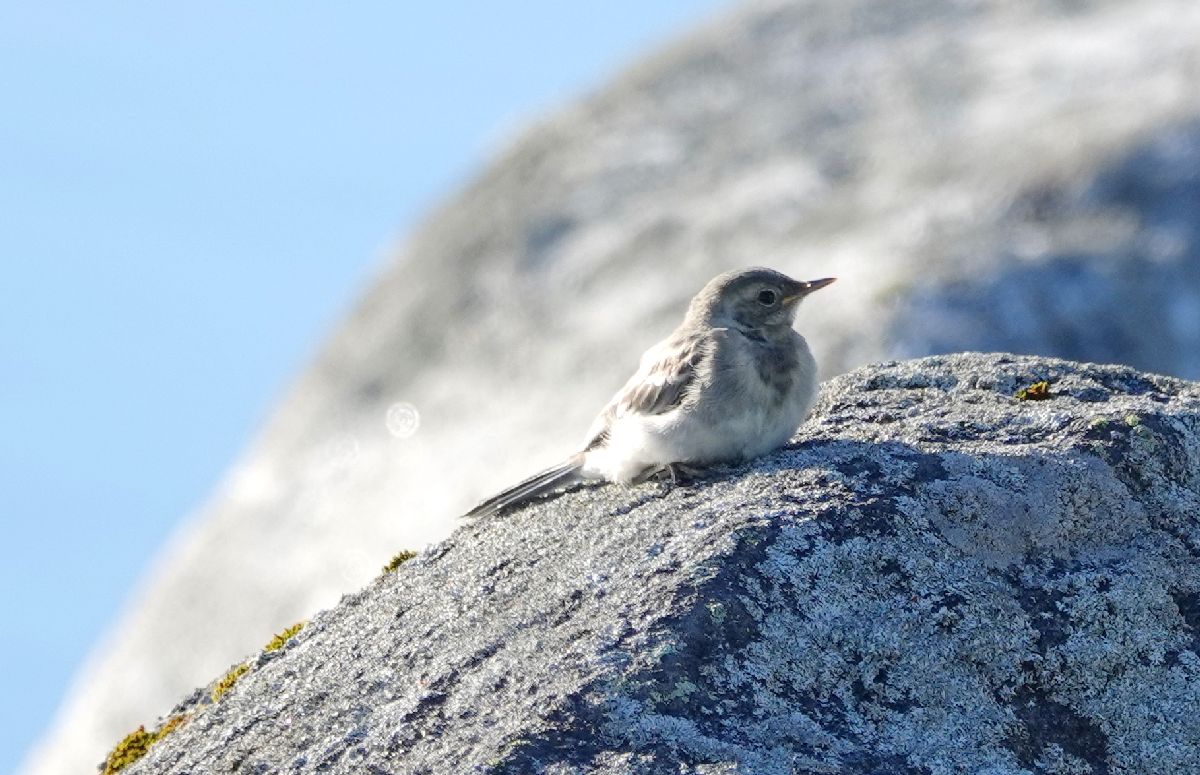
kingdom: Animalia
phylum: Chordata
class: Aves
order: Passeriformes
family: Motacillidae
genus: Motacilla
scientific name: Motacilla alba
